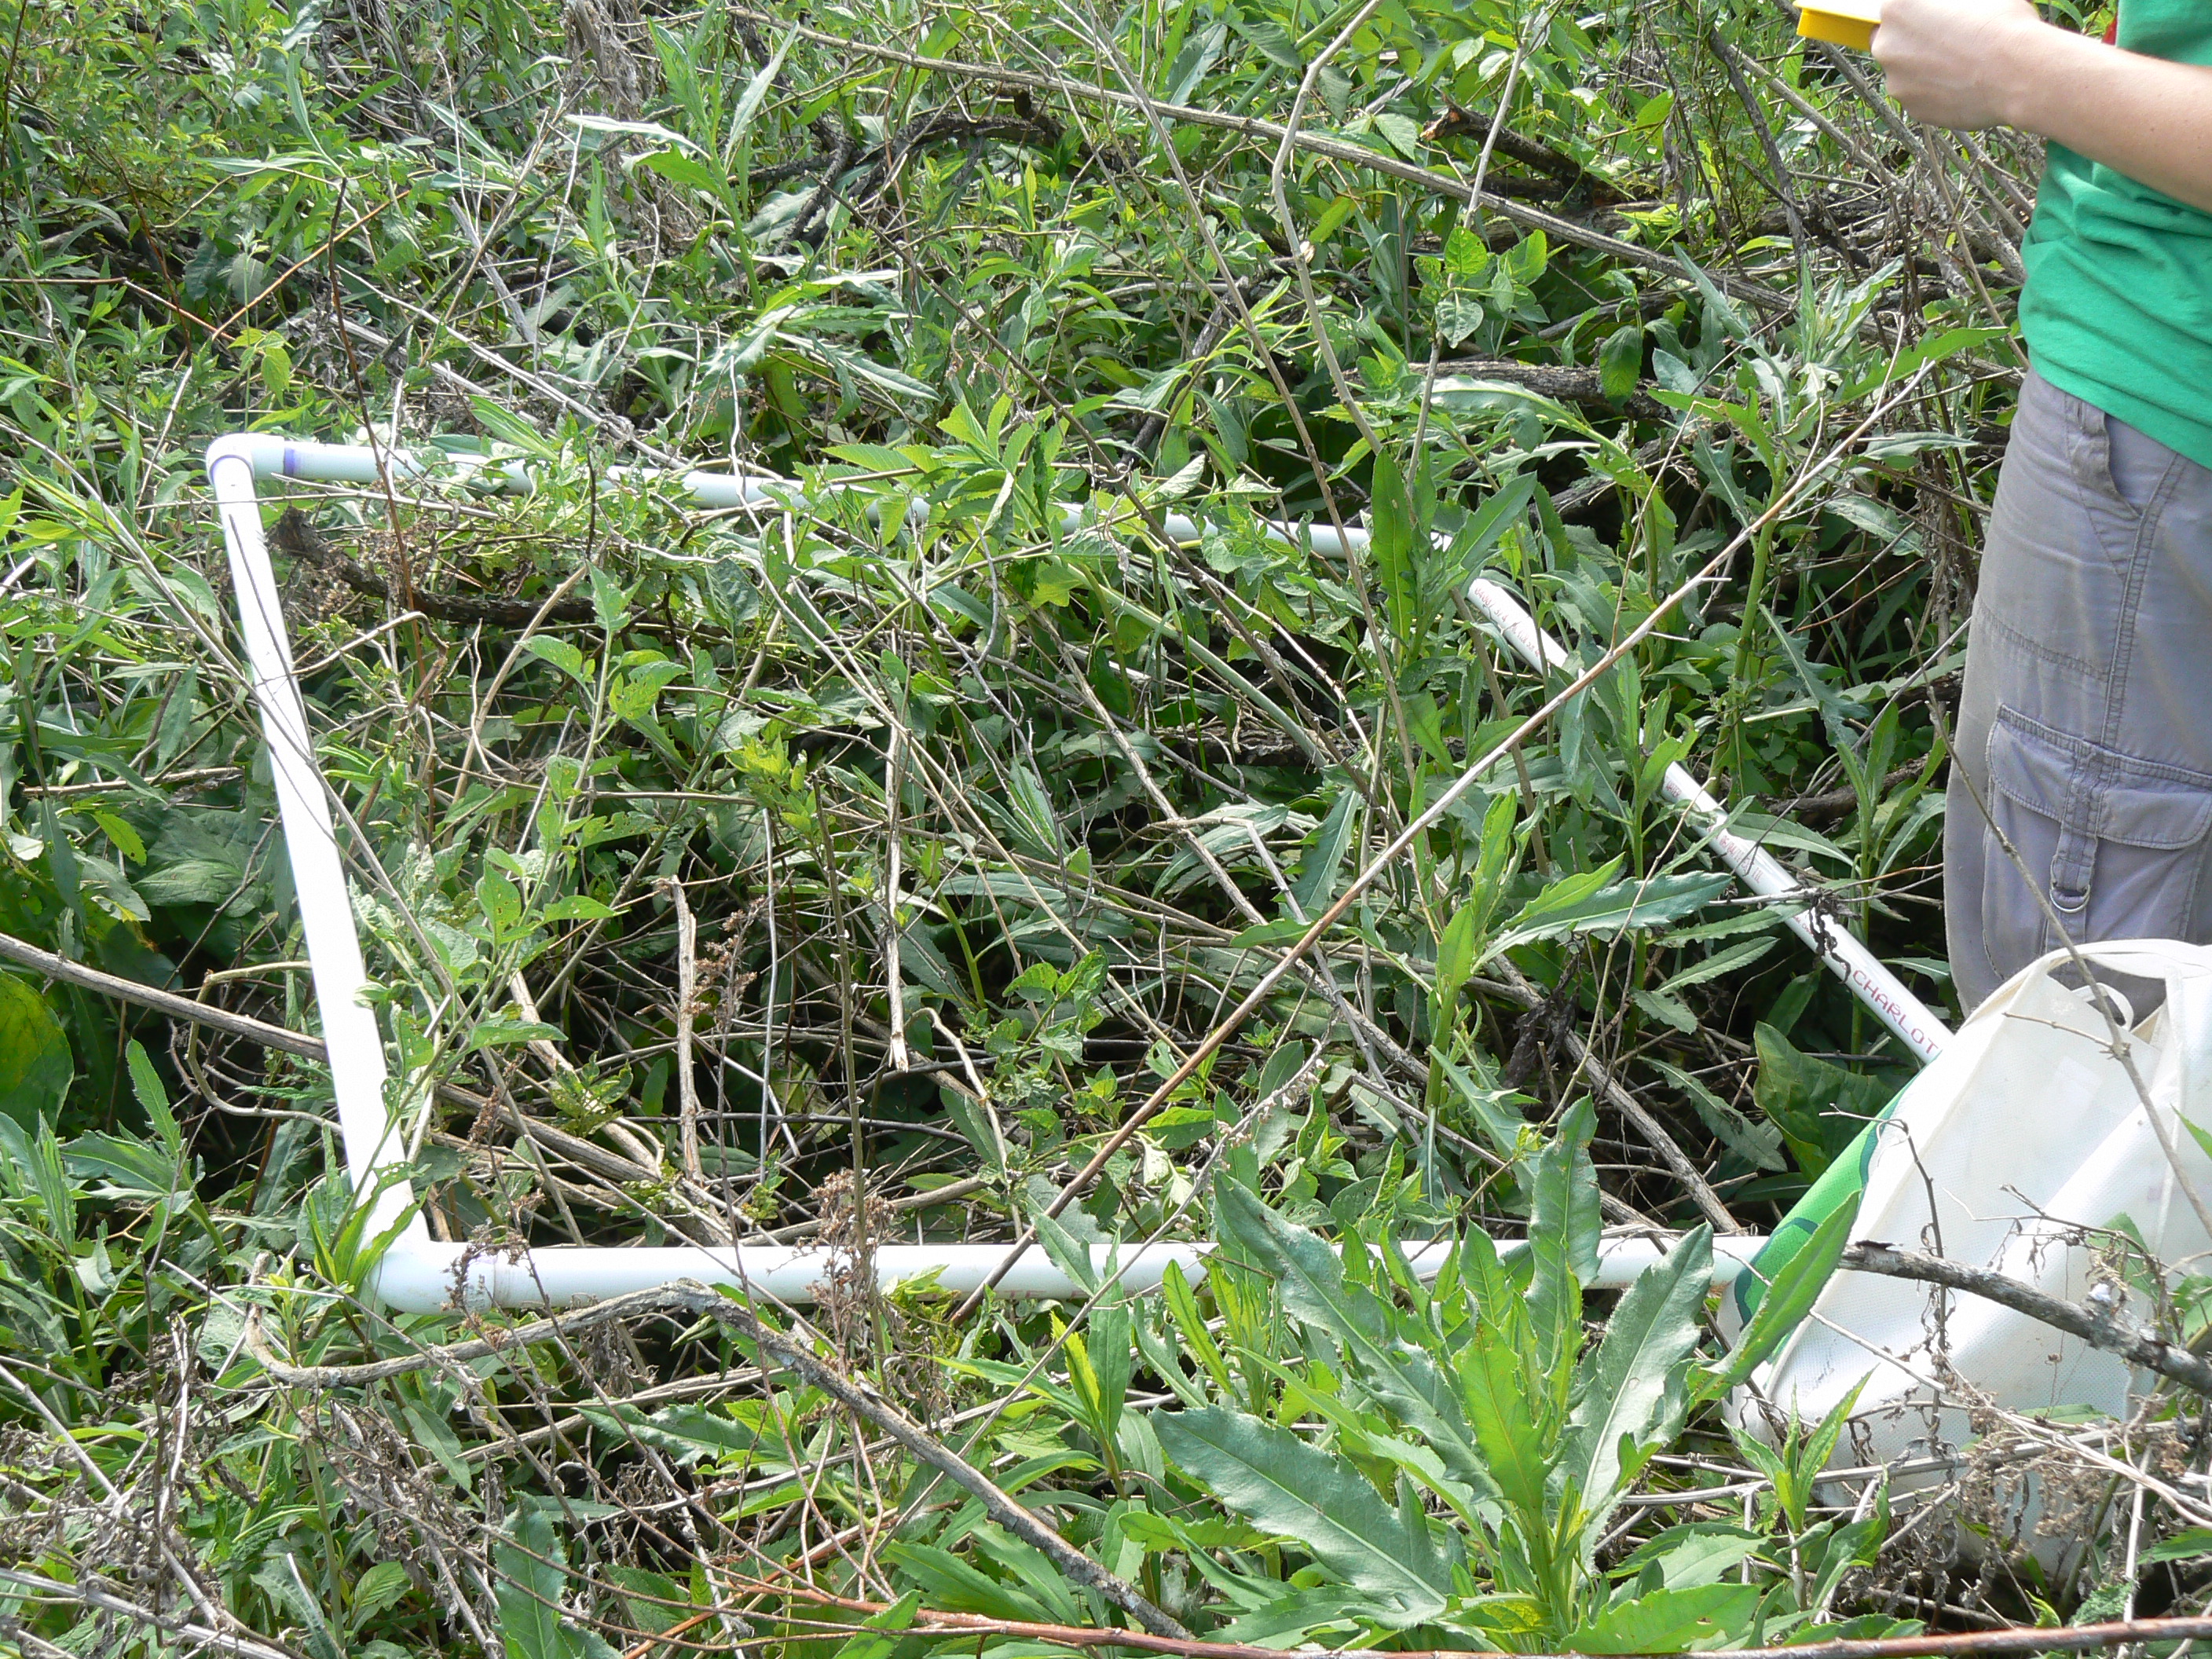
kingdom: Plantae
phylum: Tracheophyta
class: Magnoliopsida
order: Asterales
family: Asteraceae
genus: Solidago
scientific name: Solidago gigantea
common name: Giant goldenrod
